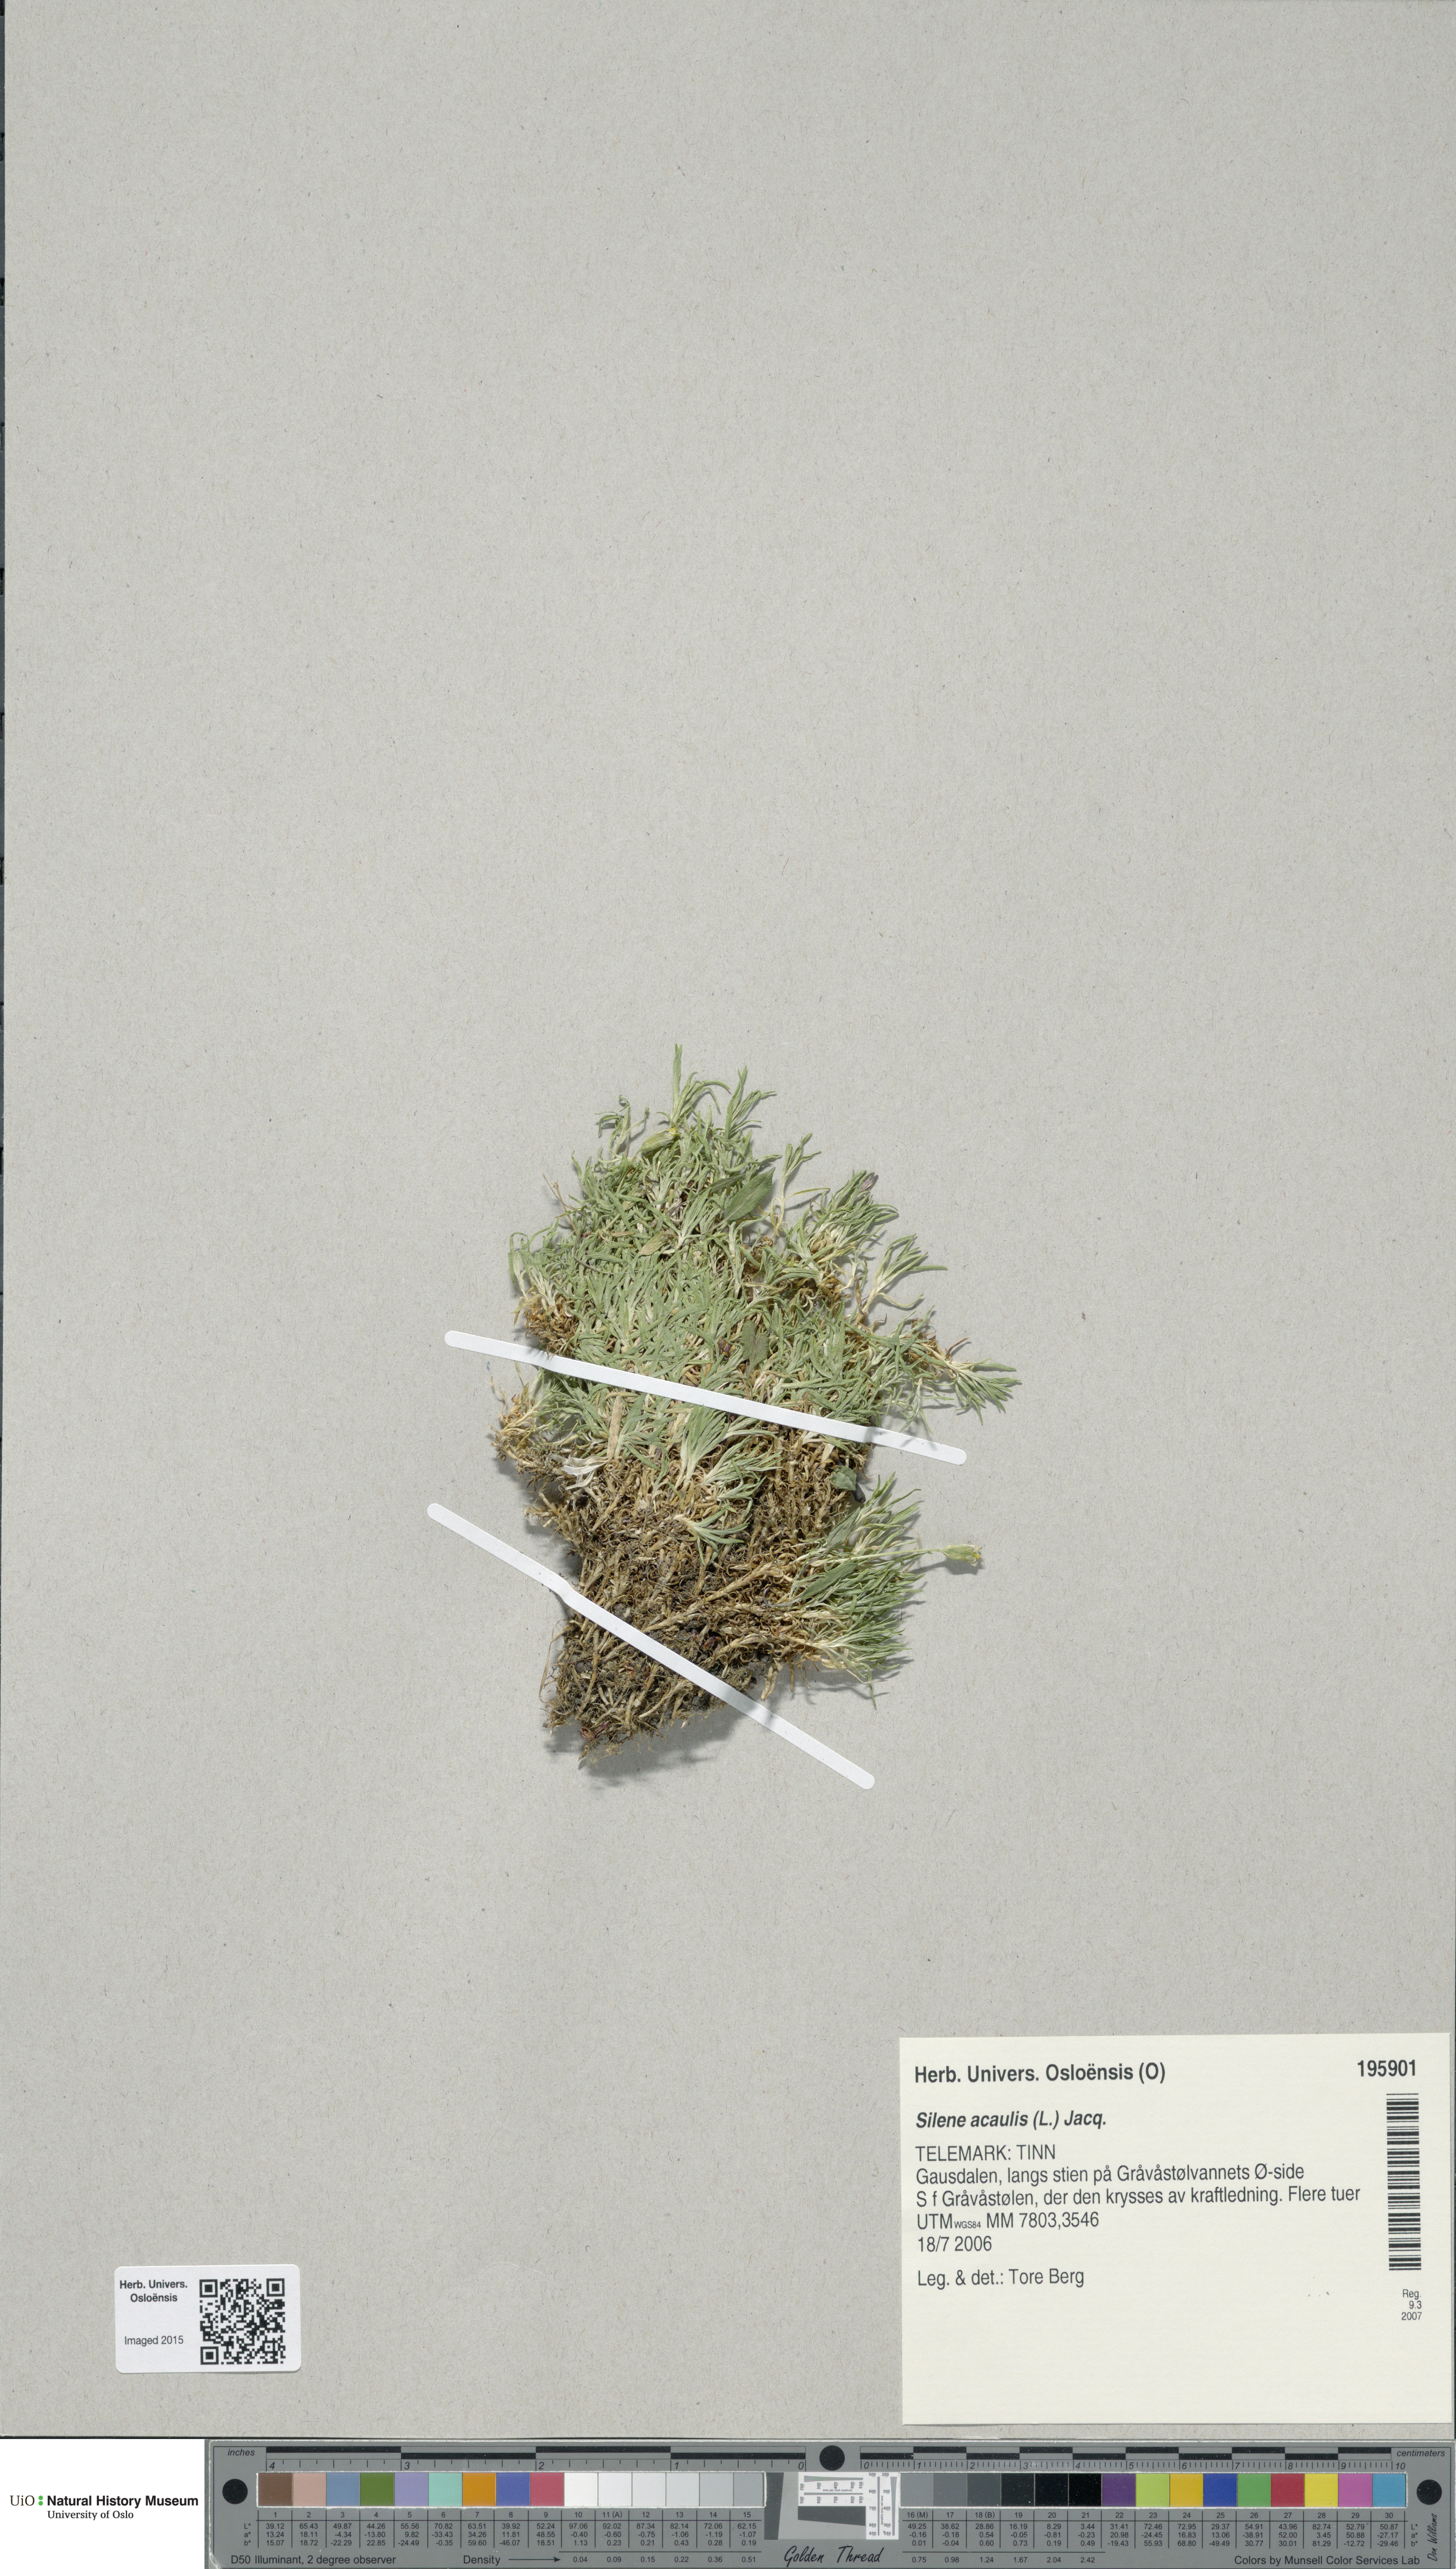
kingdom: Plantae
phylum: Tracheophyta
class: Magnoliopsida
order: Caryophyllales
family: Caryophyllaceae
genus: Silene
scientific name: Silene acaulis
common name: Moss campion
